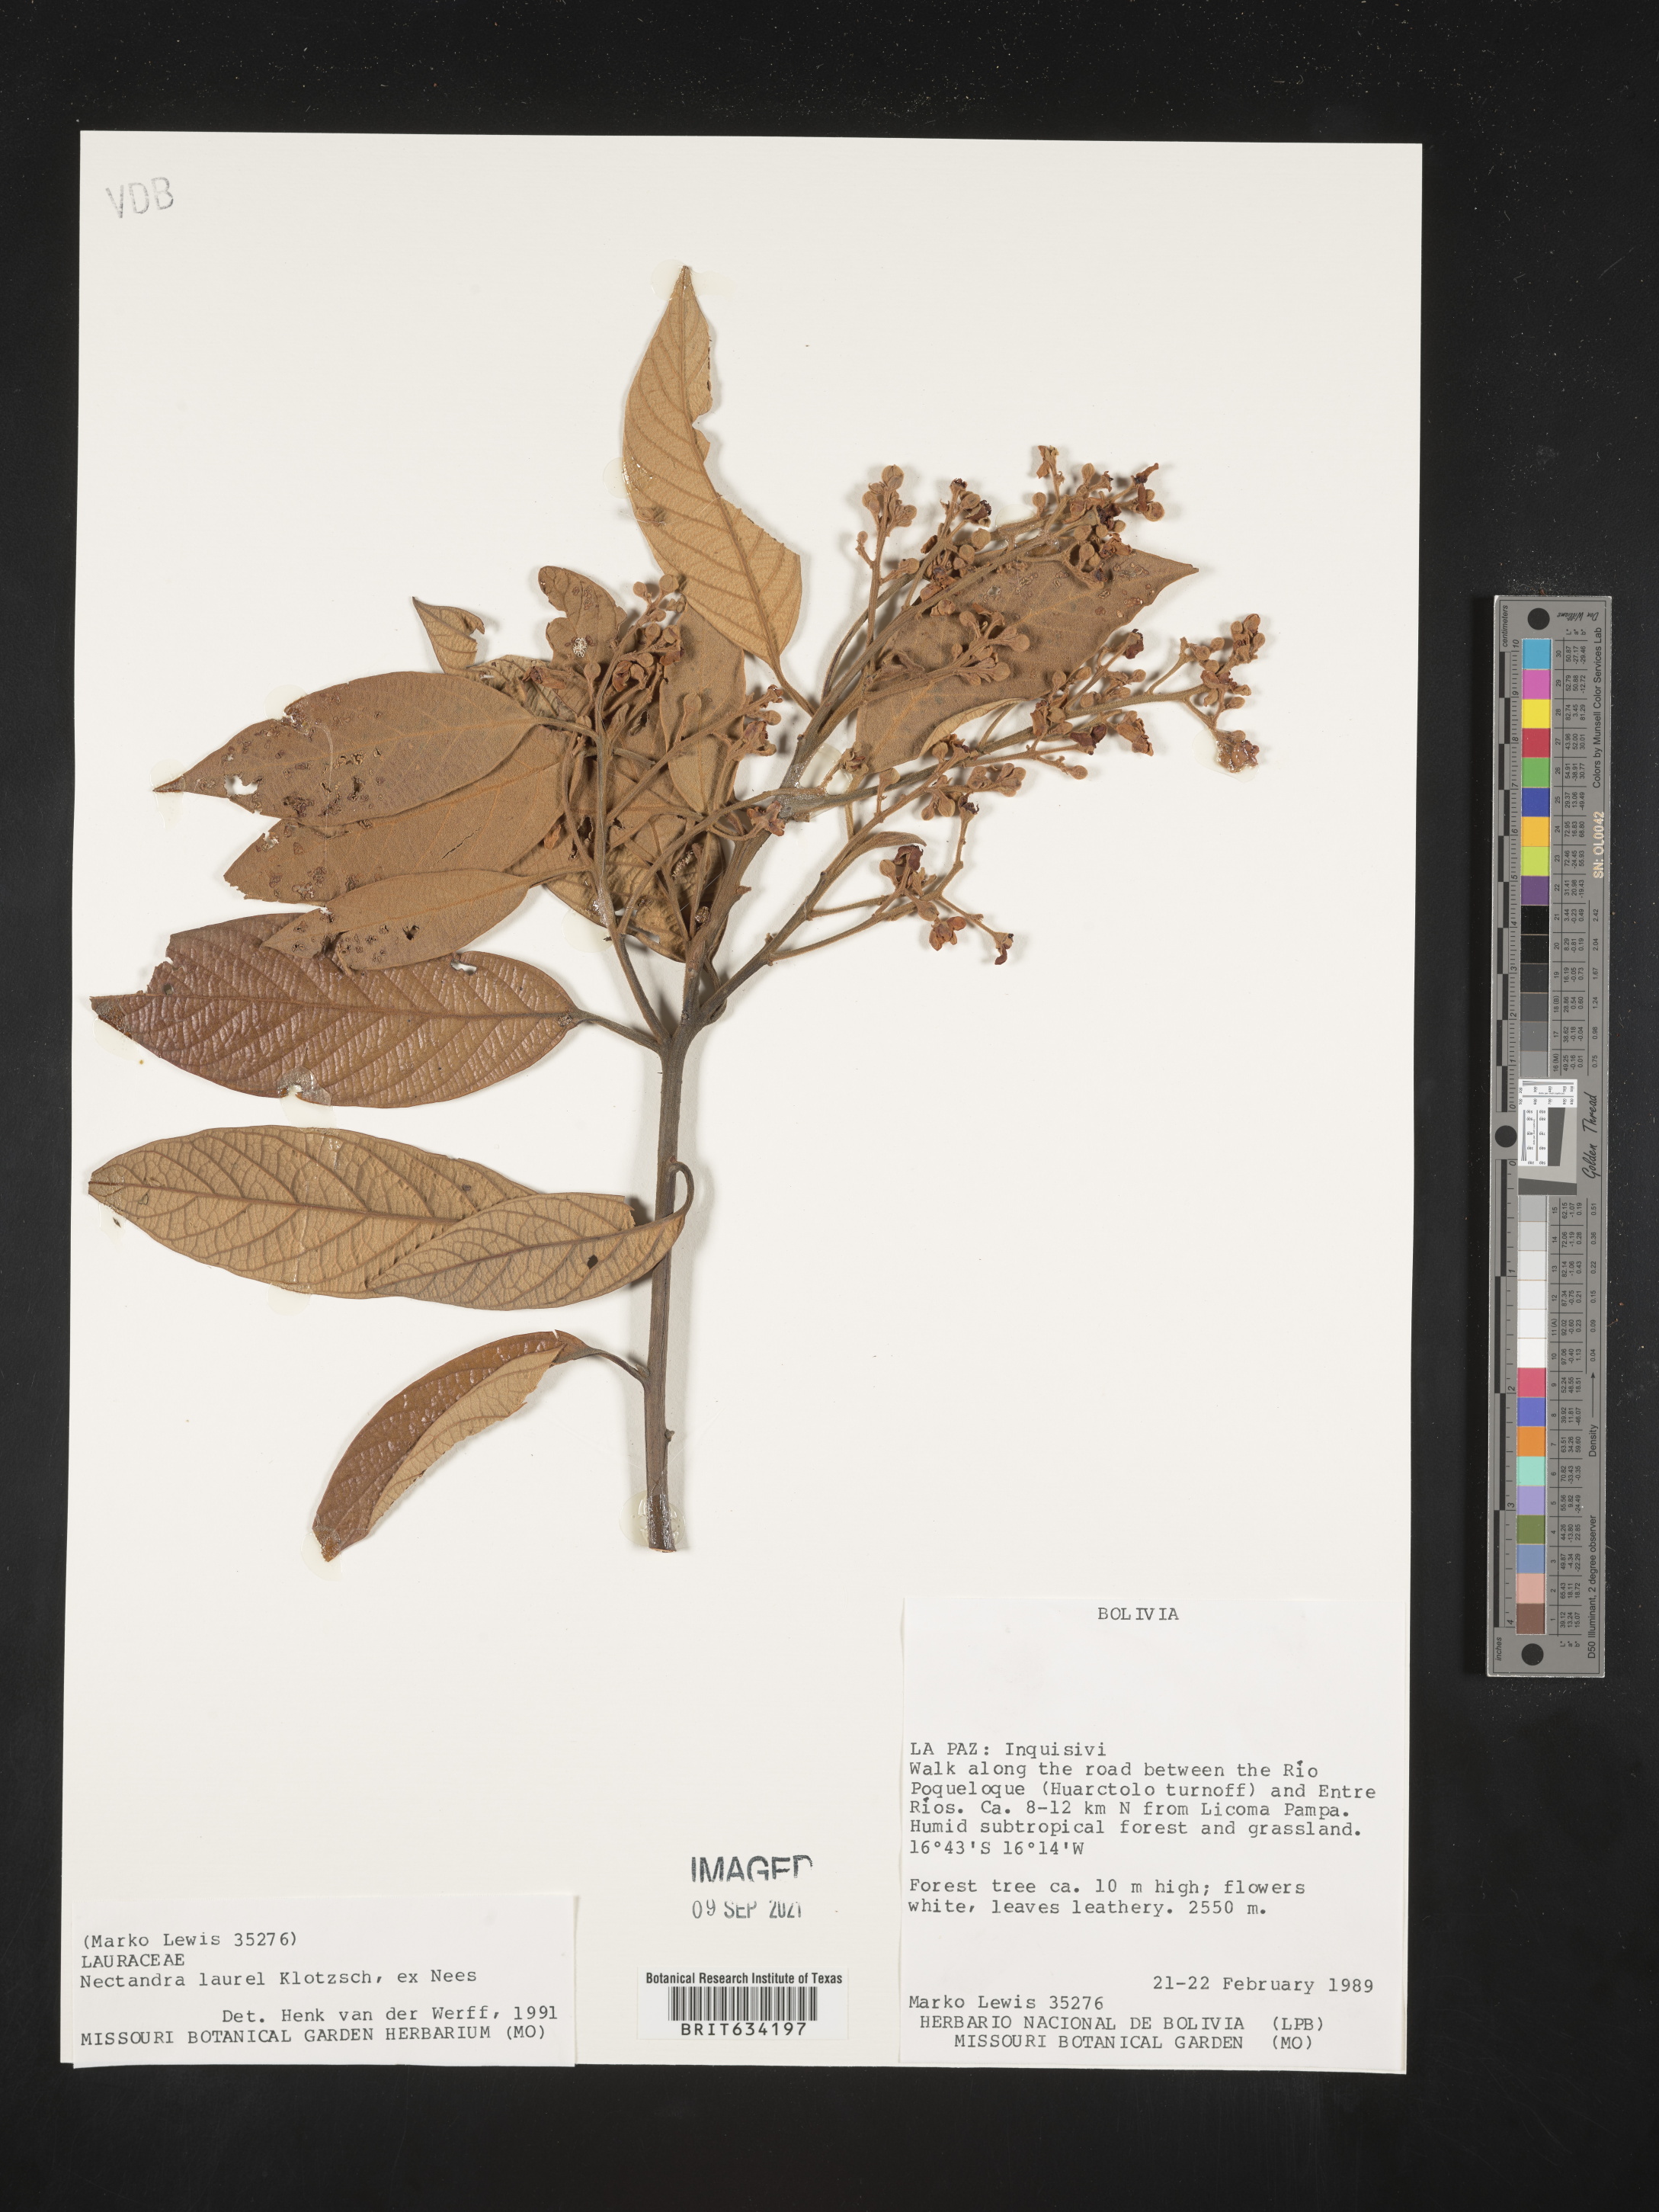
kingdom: Plantae
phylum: Tracheophyta
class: Magnoliopsida
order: Laurales
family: Lauraceae
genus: Nectandra
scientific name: Nectandra
